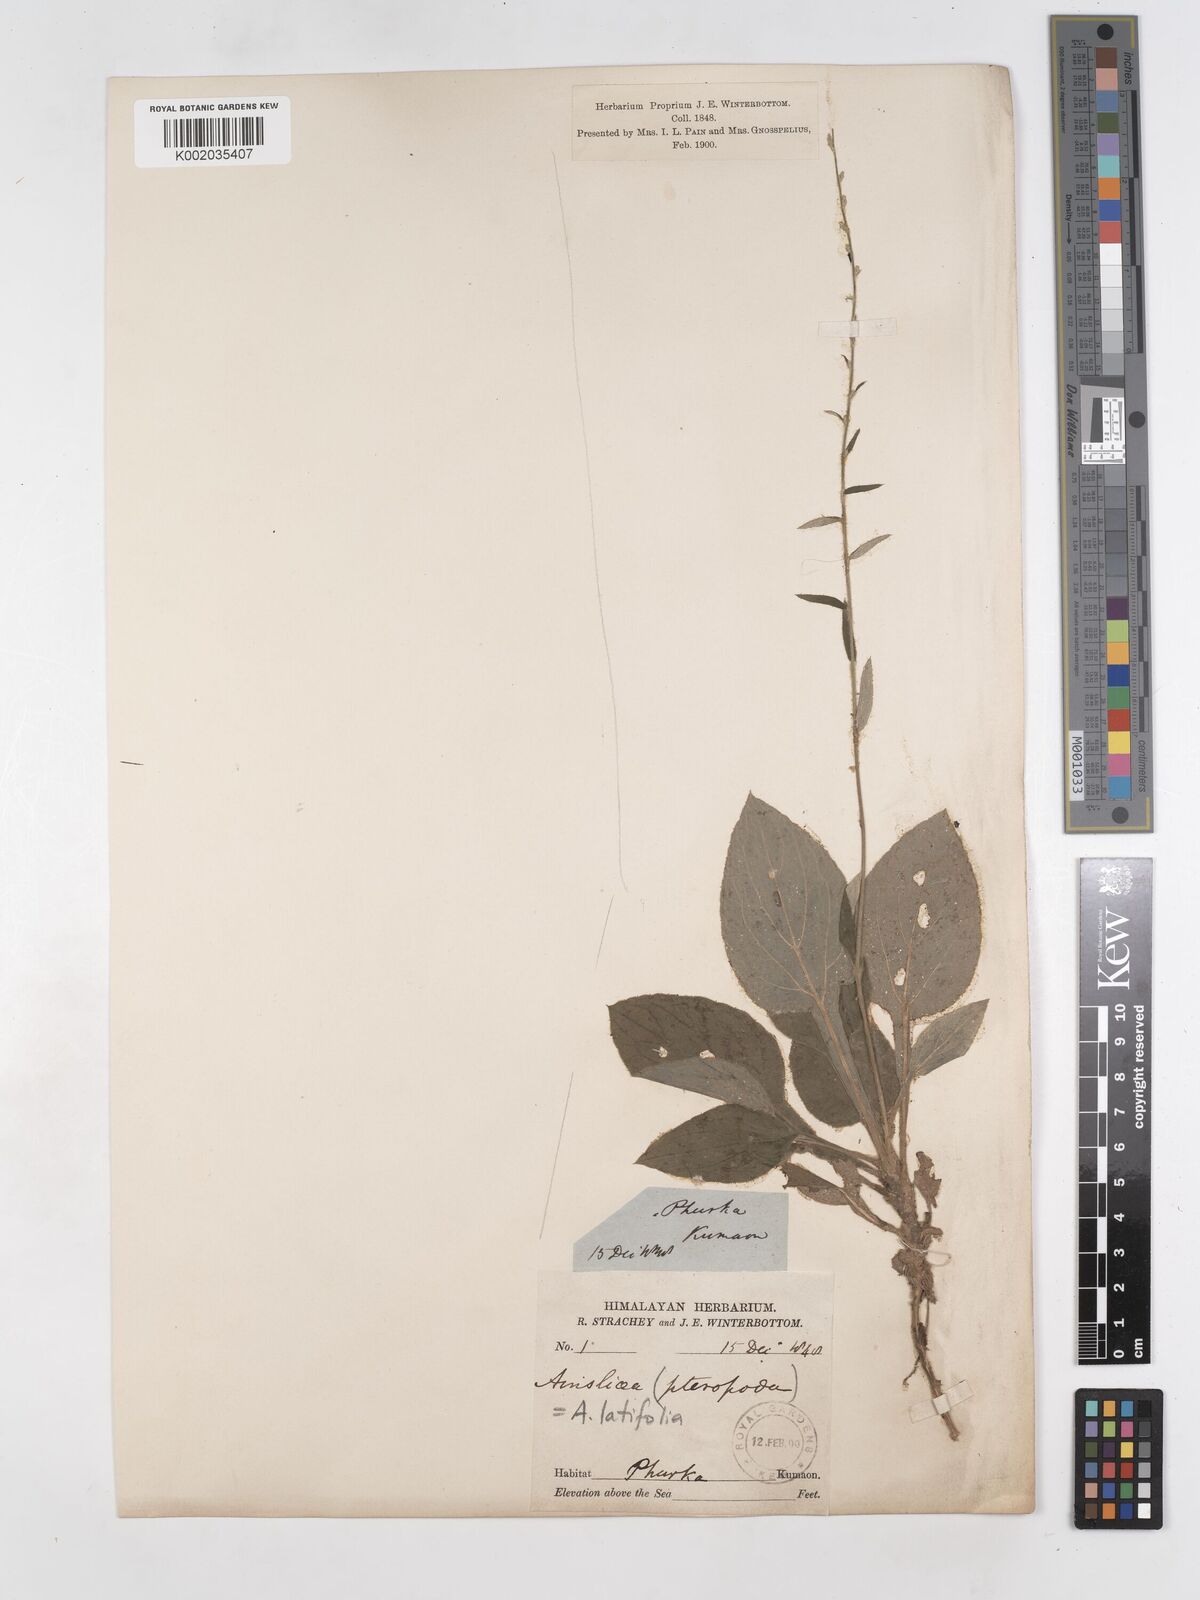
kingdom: Plantae
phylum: Tracheophyta
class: Magnoliopsida
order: Asterales
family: Asteraceae
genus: Ainsliaea
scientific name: Ainsliaea latifolia
